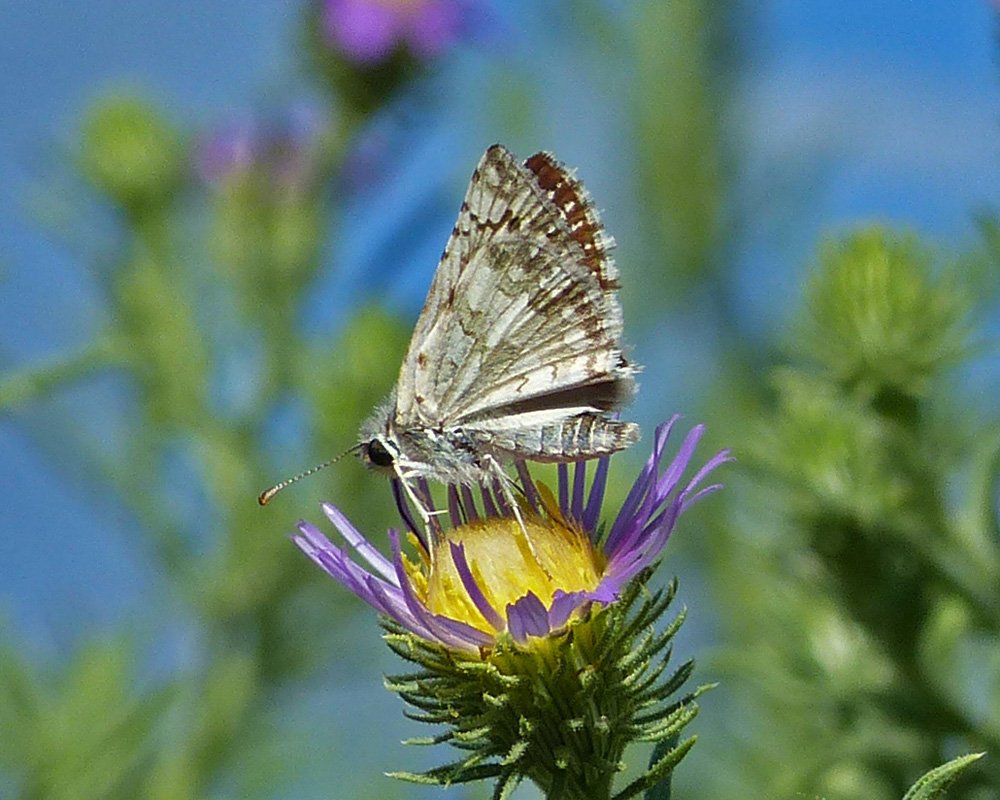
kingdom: Animalia
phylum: Arthropoda
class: Insecta
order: Lepidoptera
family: Hesperiidae
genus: Pyrgus
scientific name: Pyrgus communis
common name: Common Checkered-Skipper
